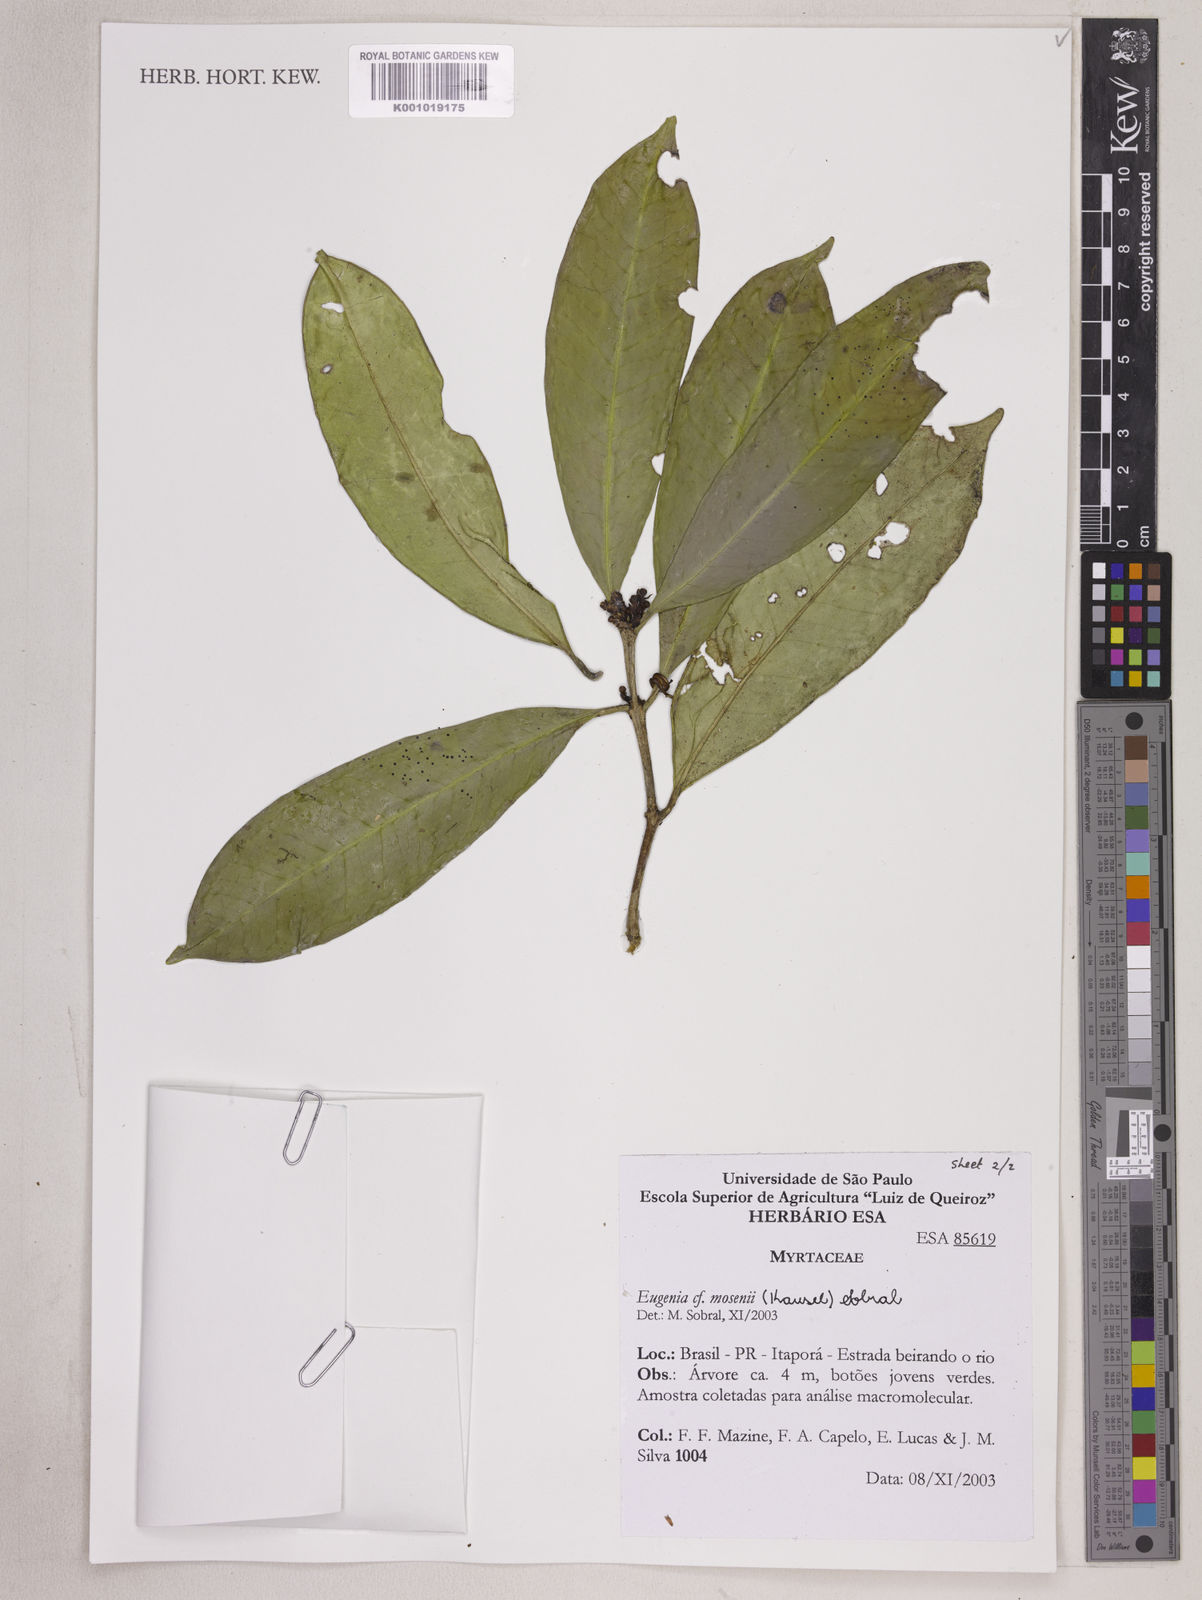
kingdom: Plantae
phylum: Tracheophyta
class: Magnoliopsida
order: Myrtales
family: Myrtaceae
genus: Eugenia
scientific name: Eugenia mosenii
